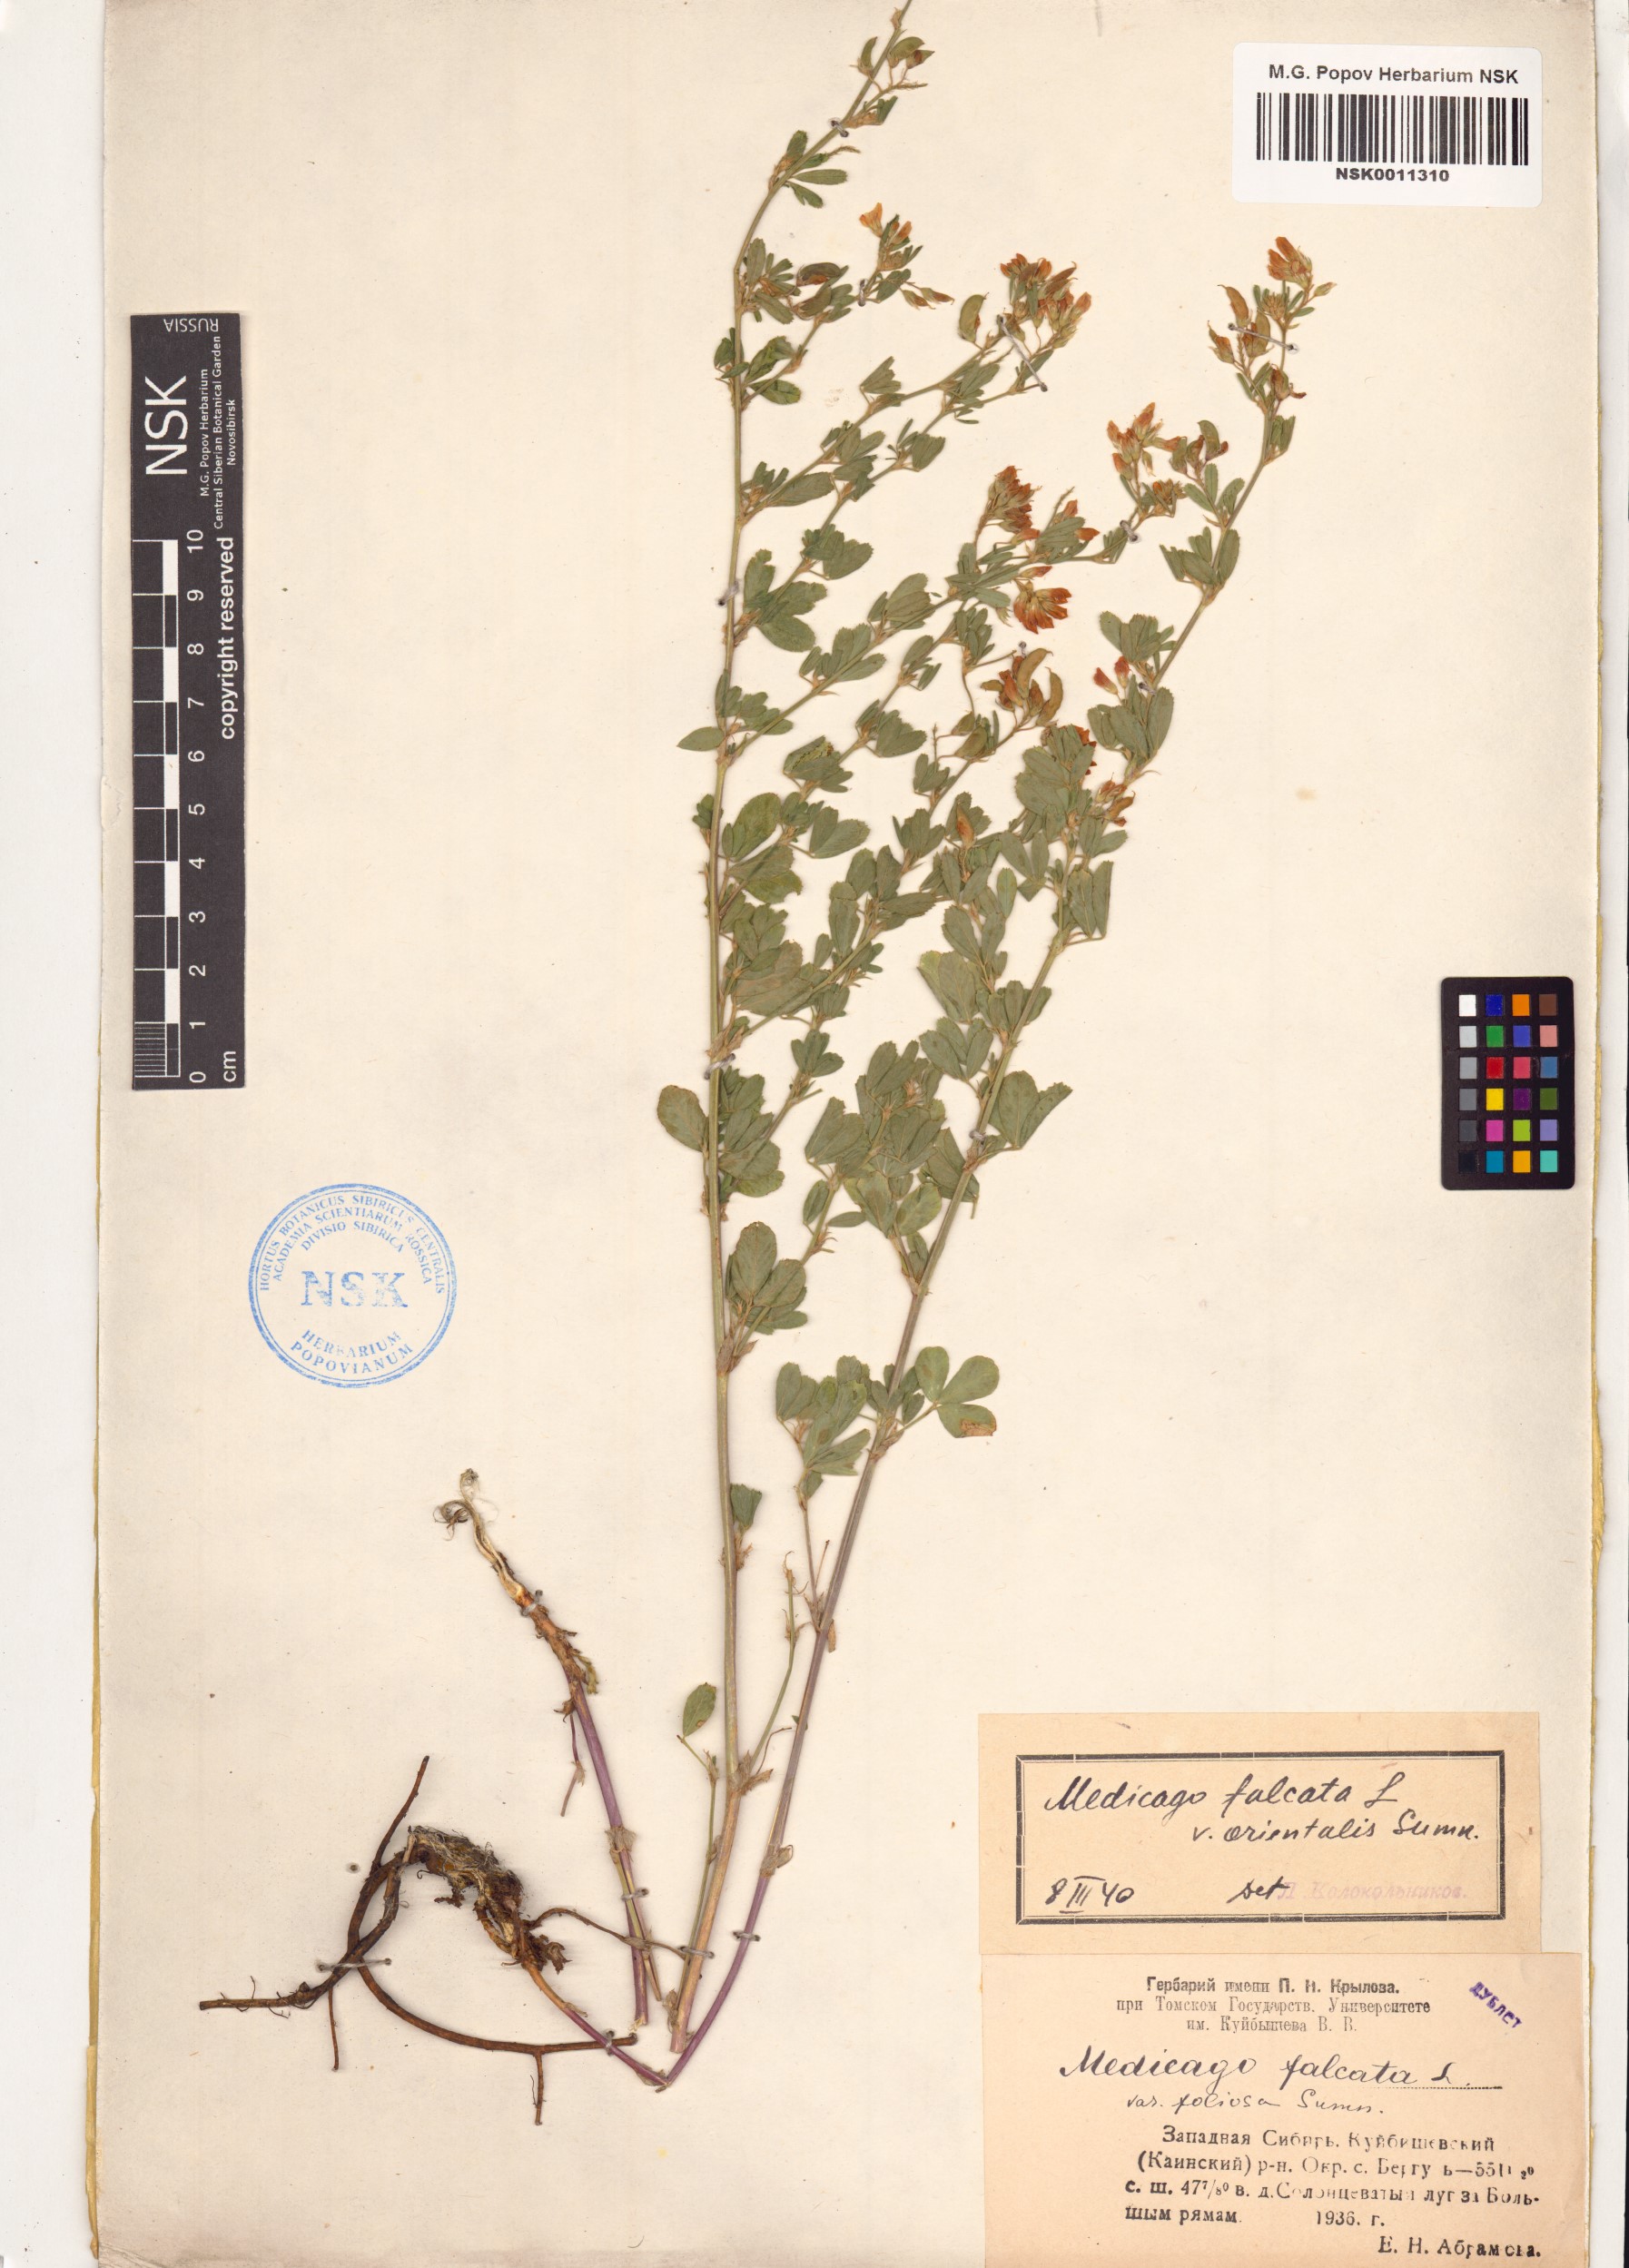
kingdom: Plantae
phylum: Tracheophyta
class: Magnoliopsida
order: Fabales
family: Fabaceae
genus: Medicago
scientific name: Medicago falcata
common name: Sickle medick
